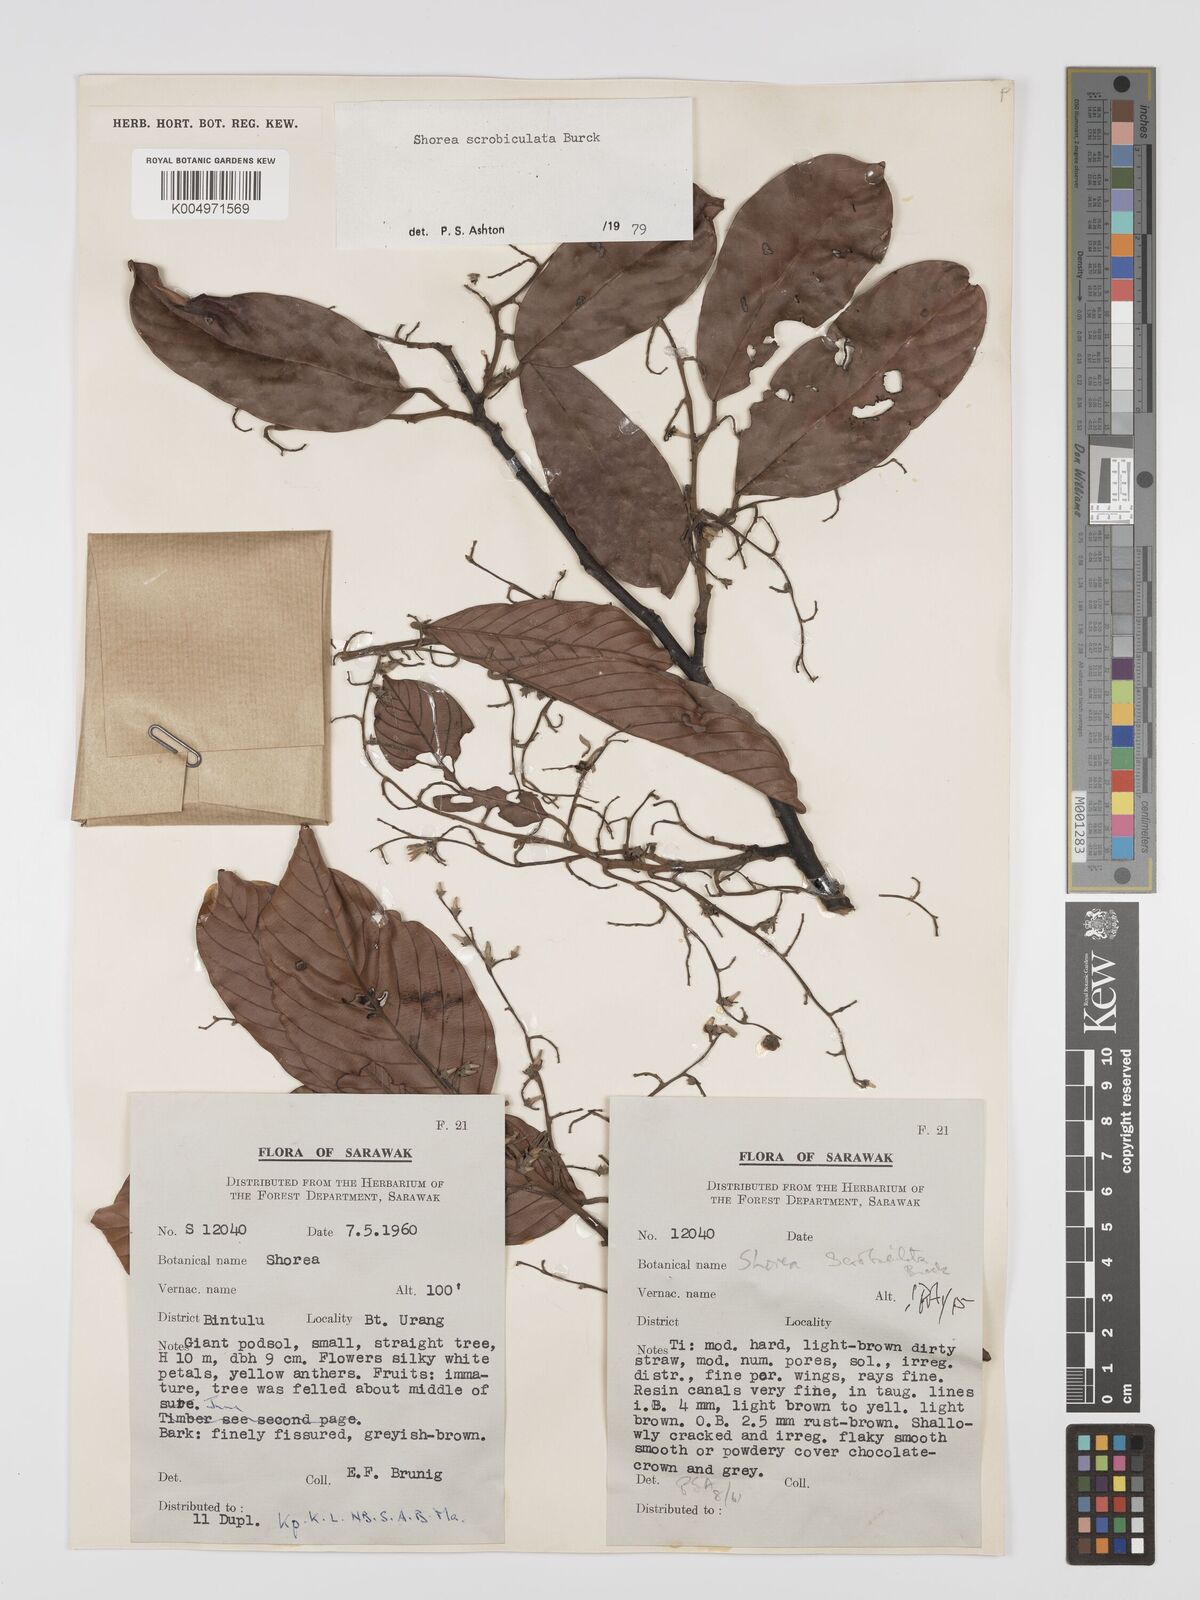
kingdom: Plantae
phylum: Tracheophyta
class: Magnoliopsida
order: Malvales
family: Dipterocarpaceae
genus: Shorea
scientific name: Shorea scrobiculata
